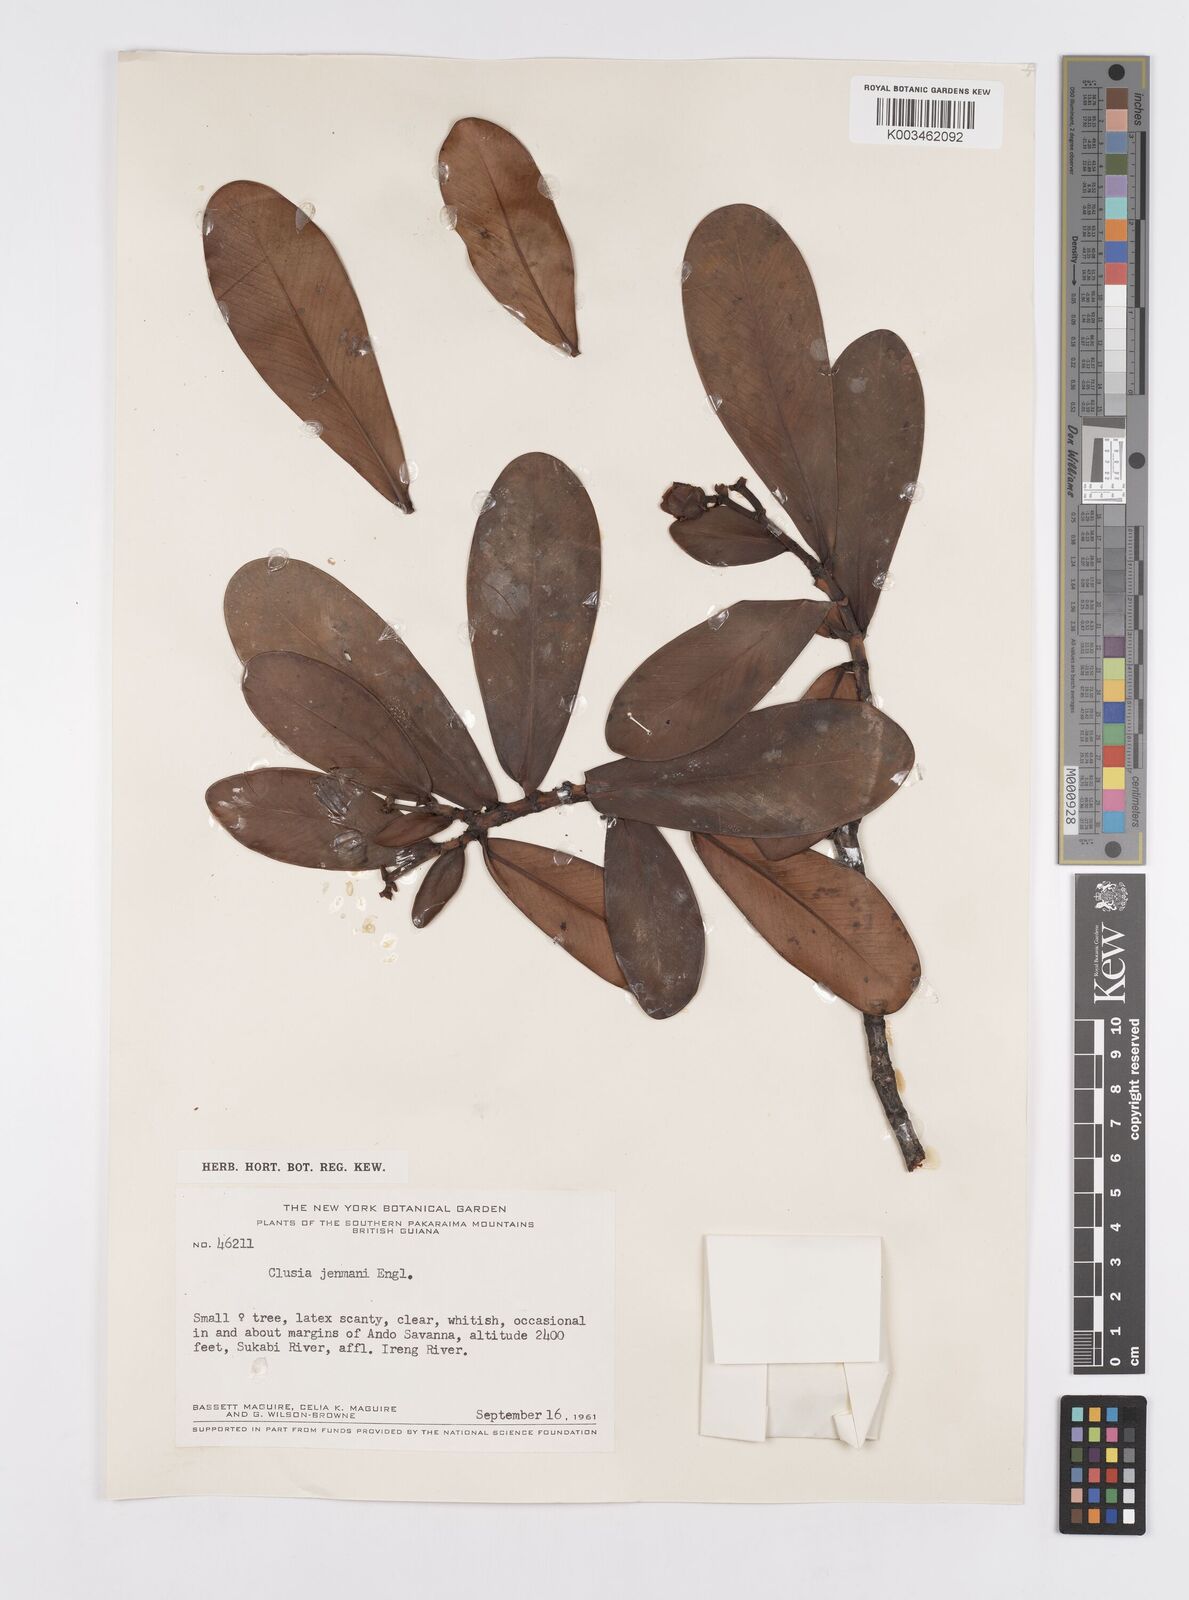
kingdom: Plantae
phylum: Tracheophyta
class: Magnoliopsida
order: Malpighiales
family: Clusiaceae
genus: Clusia
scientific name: Clusia myriandra
